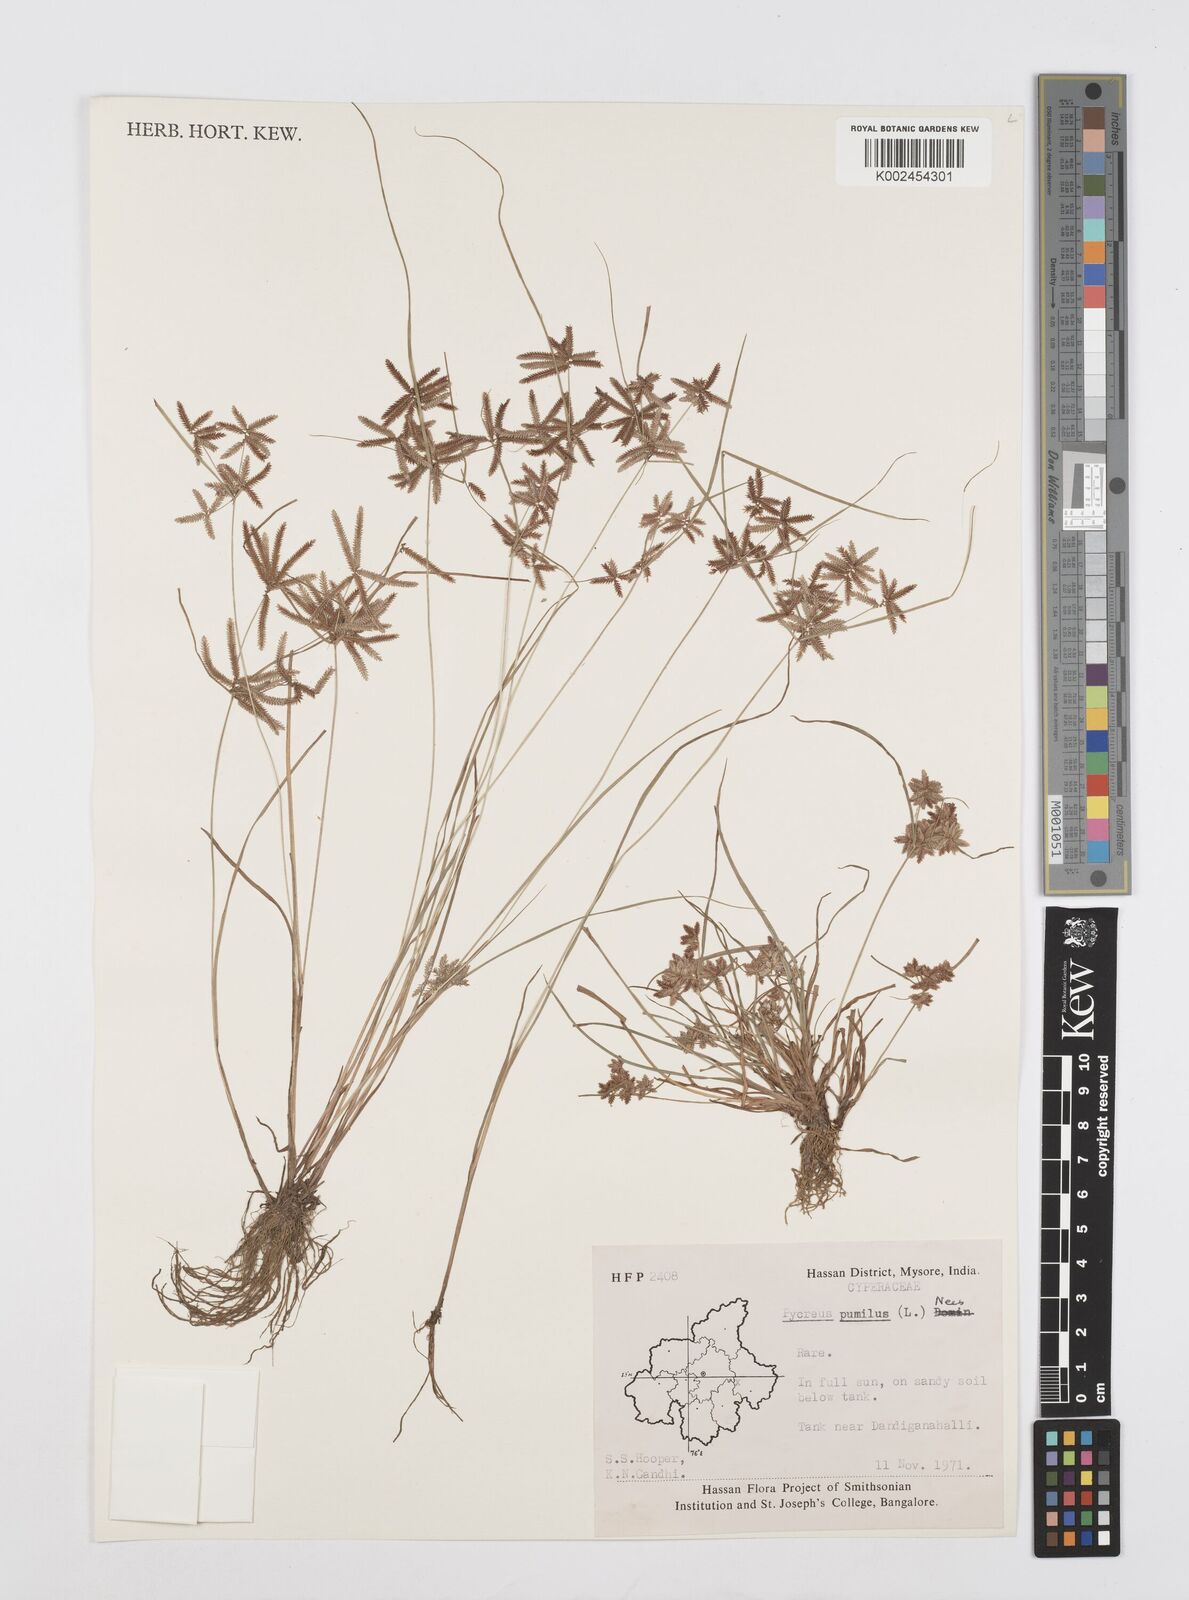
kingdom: Plantae
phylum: Tracheophyta
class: Liliopsida
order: Poales
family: Cyperaceae
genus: Cyperus
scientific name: Cyperus pumilus
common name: Low flatsedge
